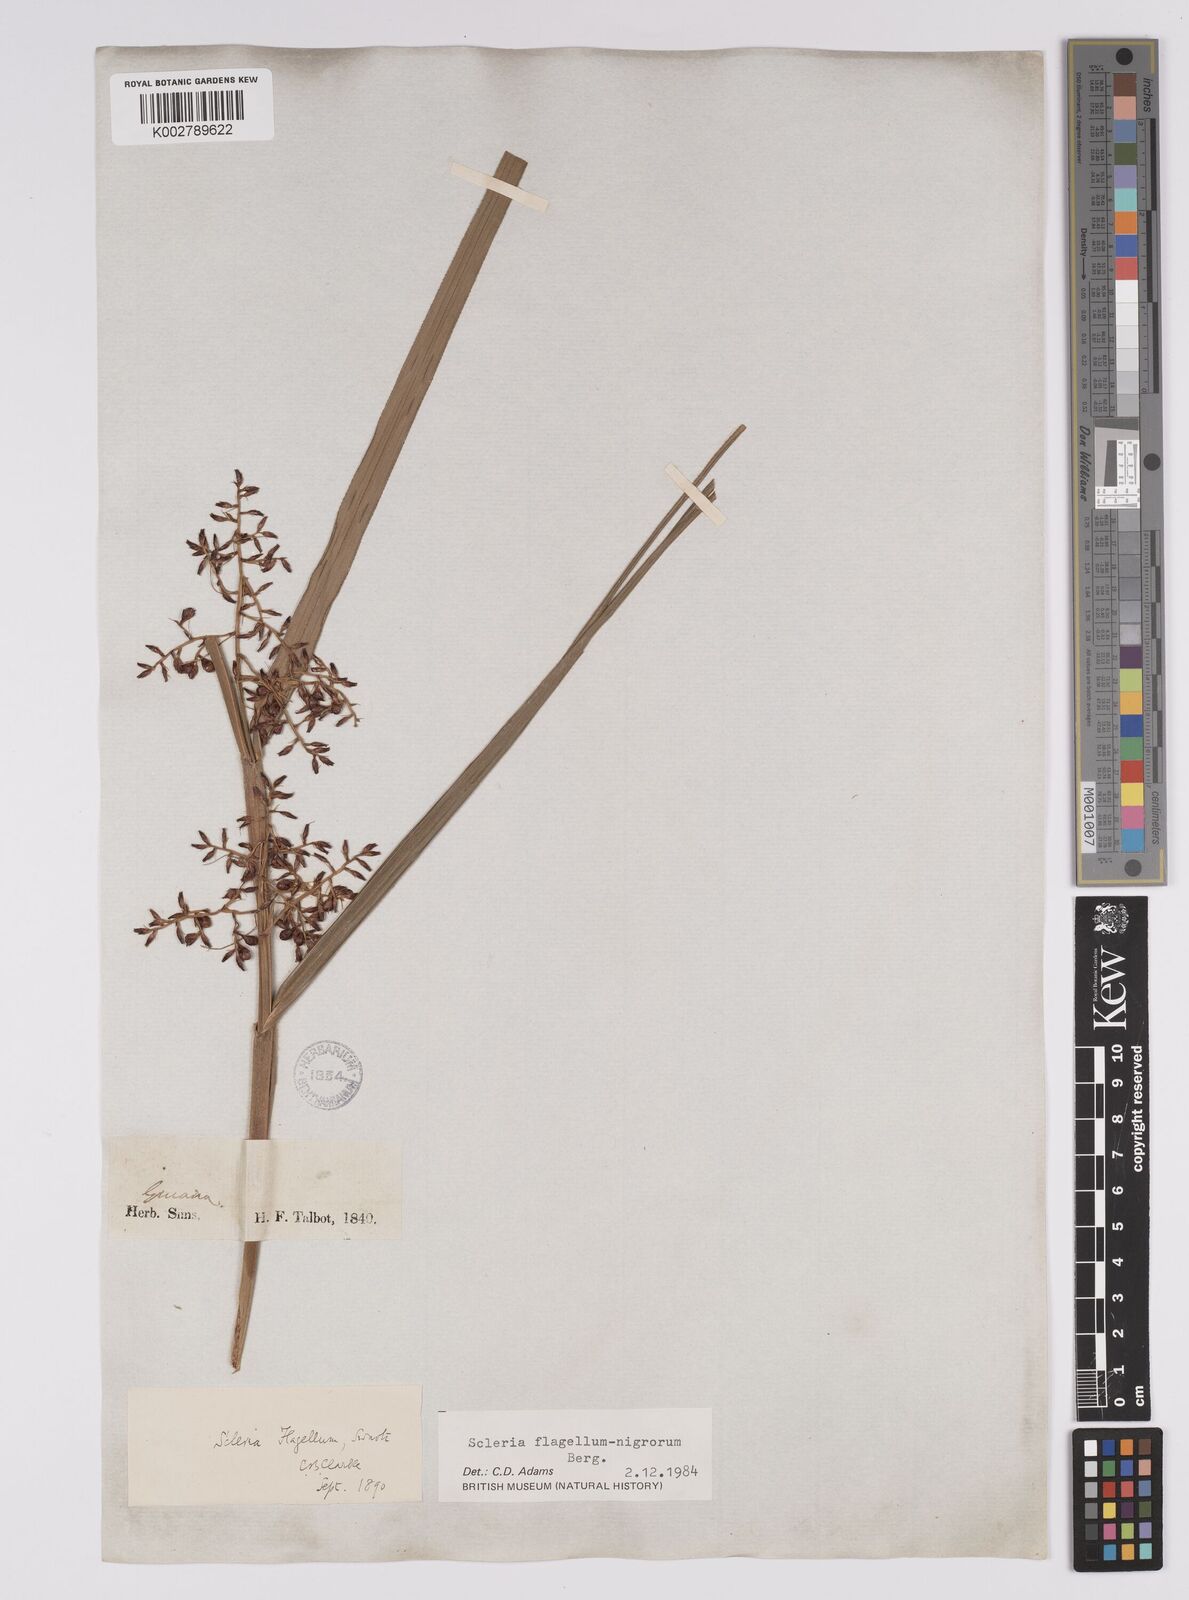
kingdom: Plantae
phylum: Tracheophyta
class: Liliopsida
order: Poales
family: Cyperaceae
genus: Scleria
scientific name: Scleria flagellum-nigrorum
